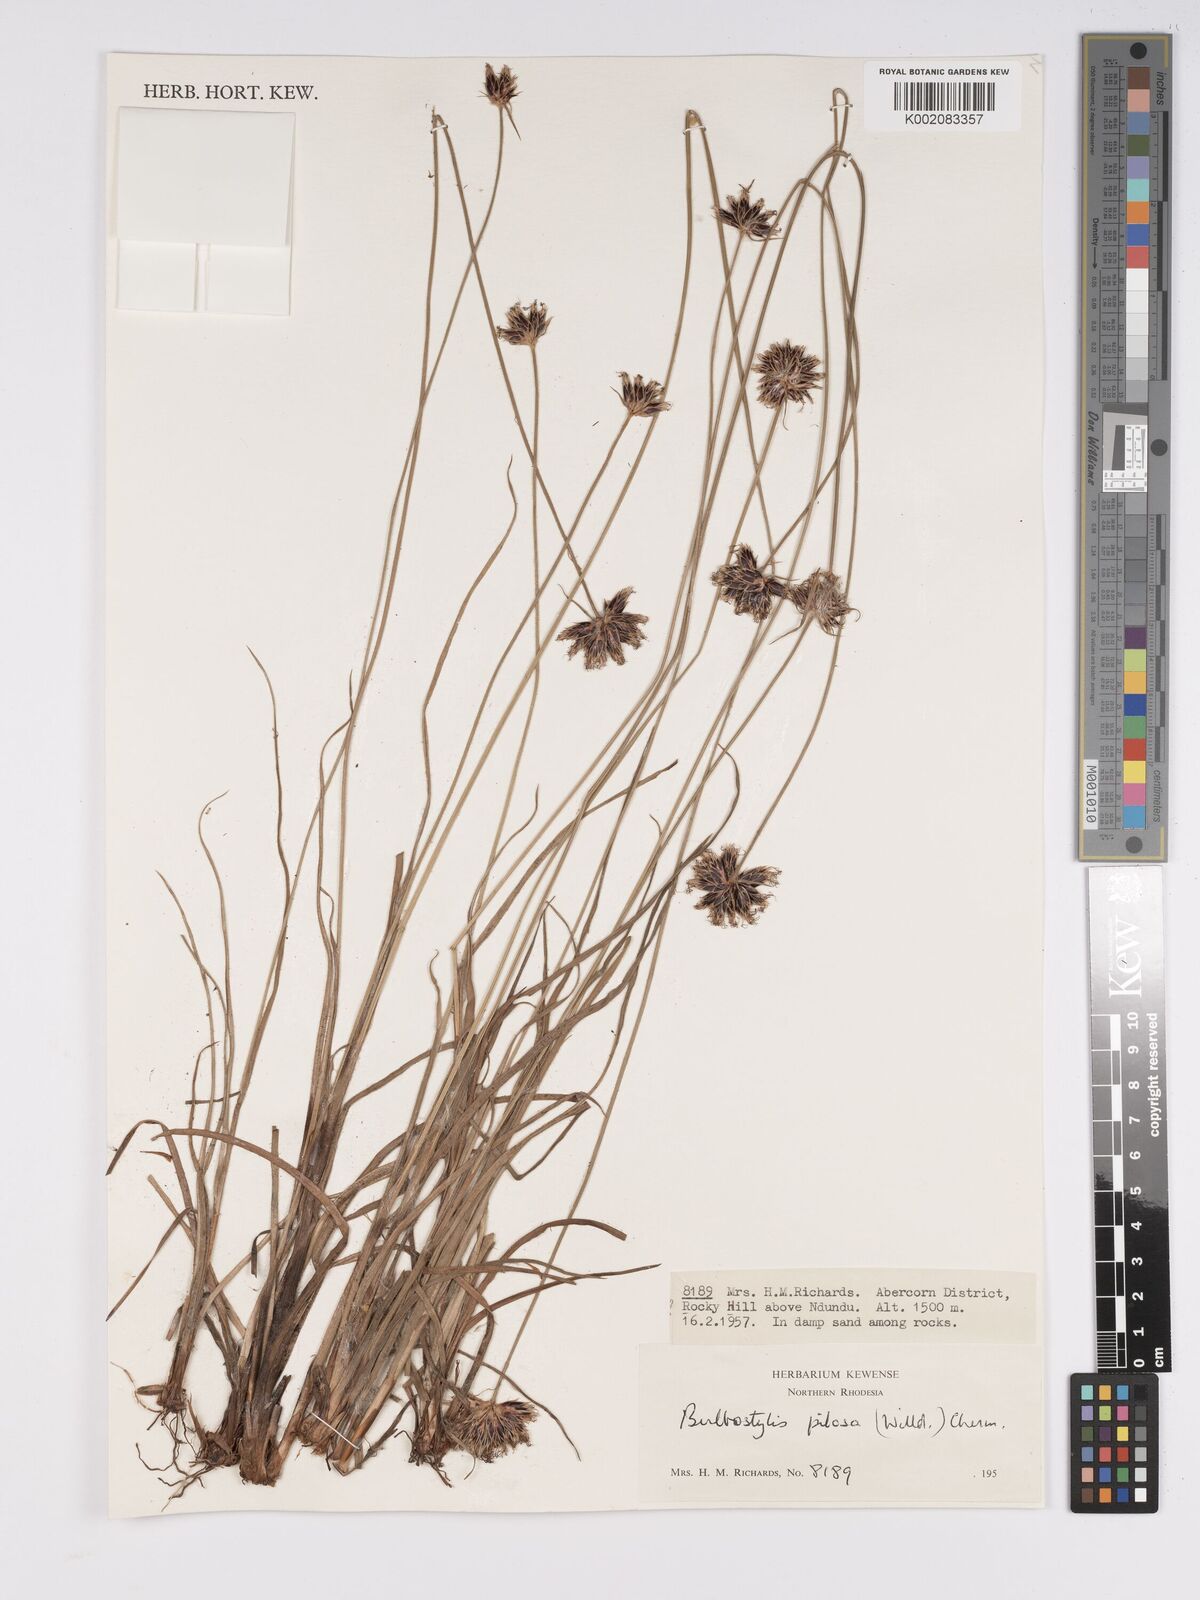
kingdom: Plantae
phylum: Tracheophyta
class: Liliopsida
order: Poales
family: Cyperaceae
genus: Bulbostylis
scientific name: Bulbostylis pilosa
